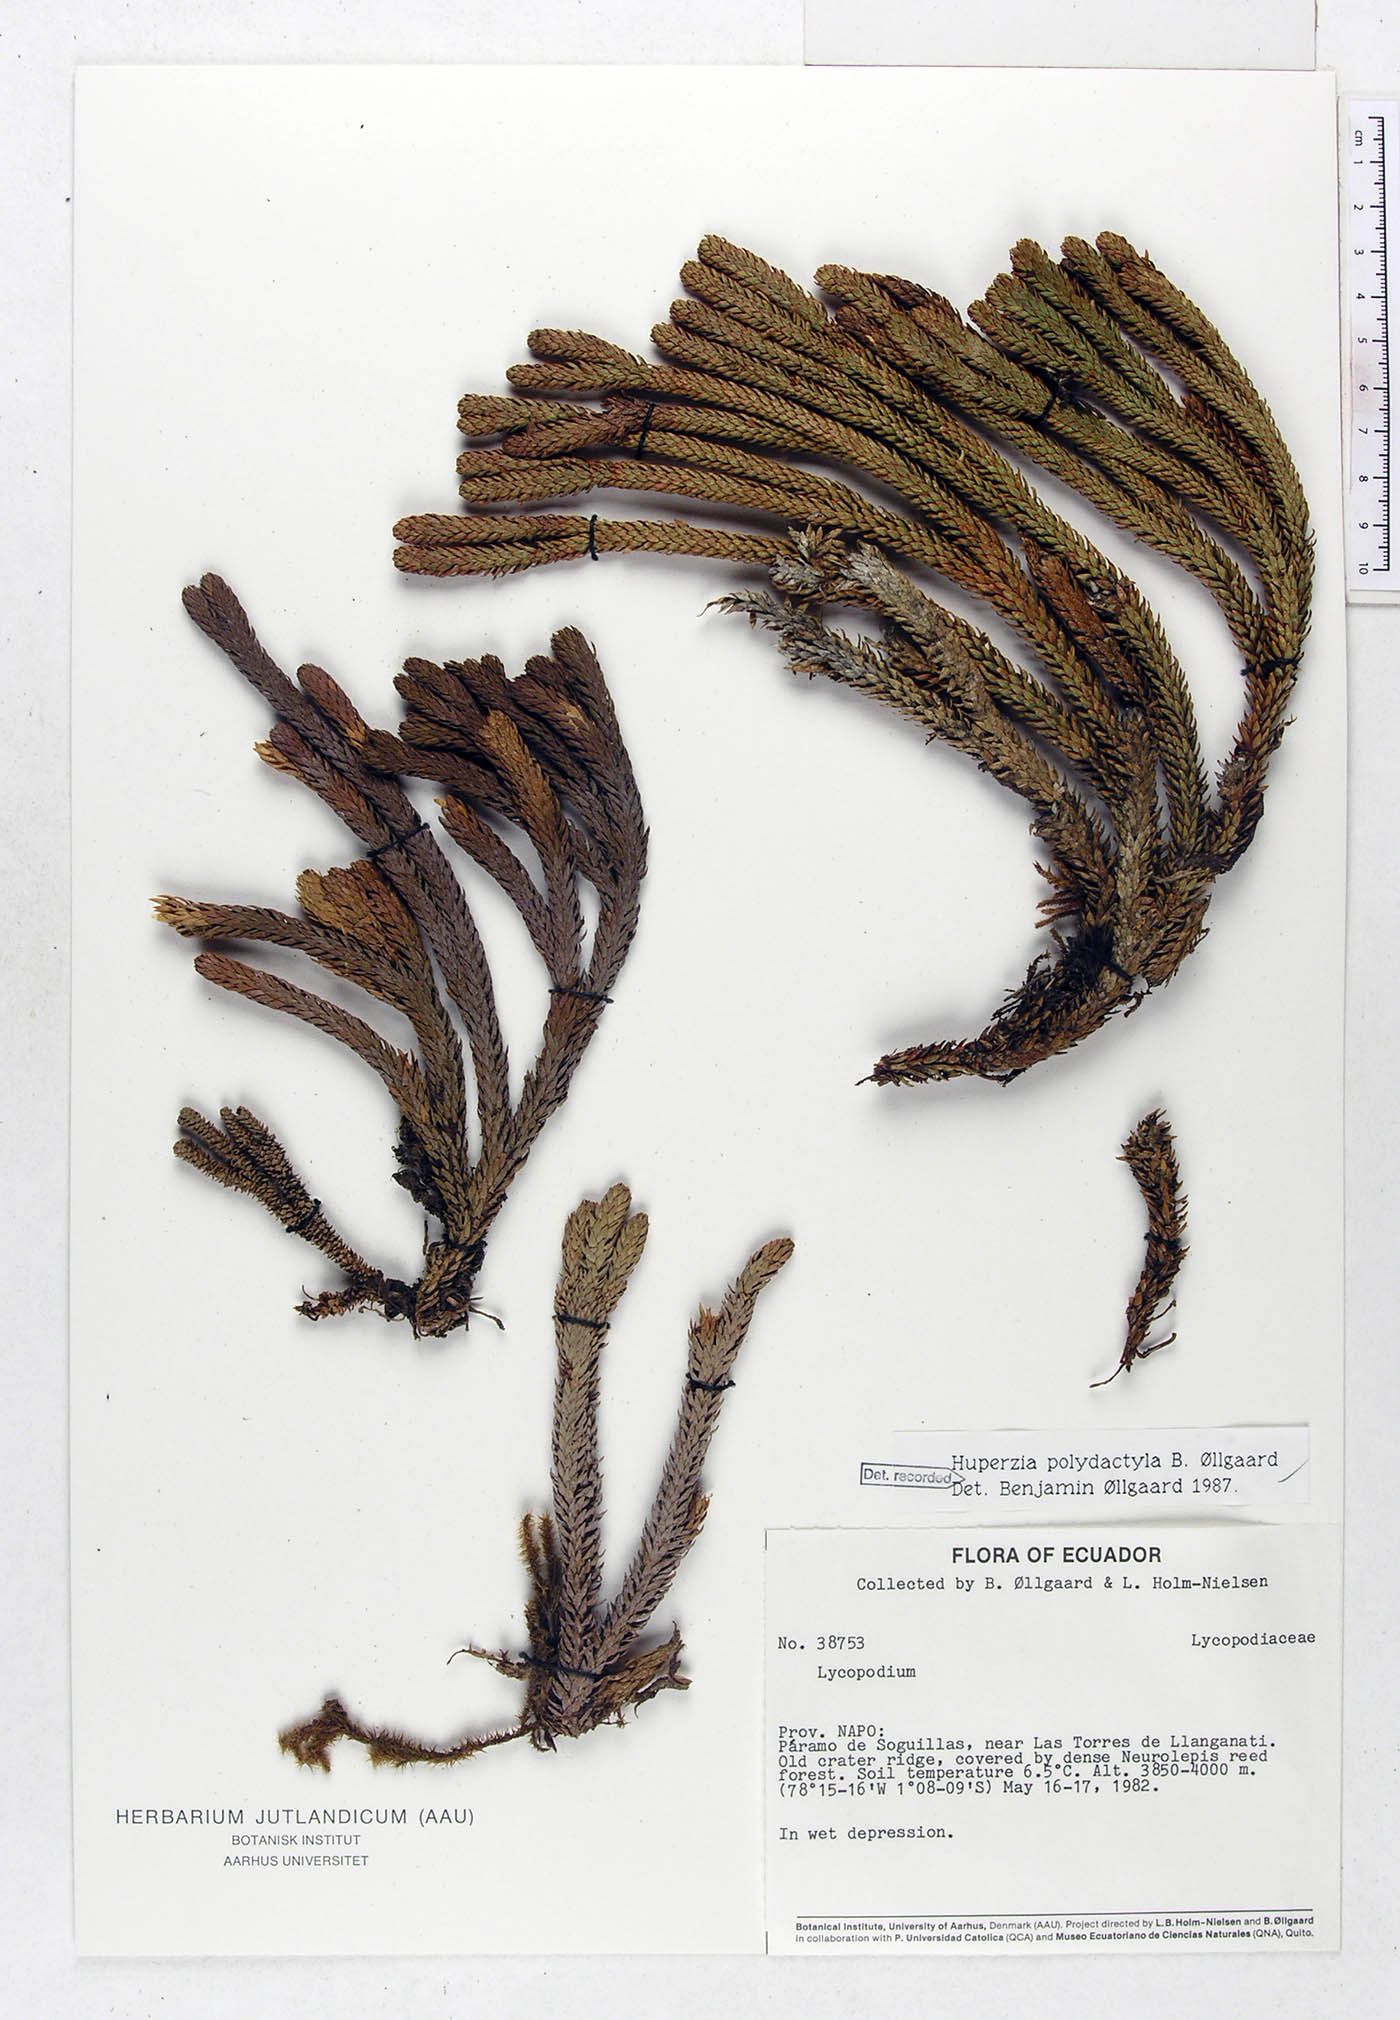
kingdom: Plantae
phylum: Tracheophyta
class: Lycopodiopsida
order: Lycopodiales
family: Lycopodiaceae
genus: Phlegmariurus
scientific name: Phlegmariurus polydactylus
